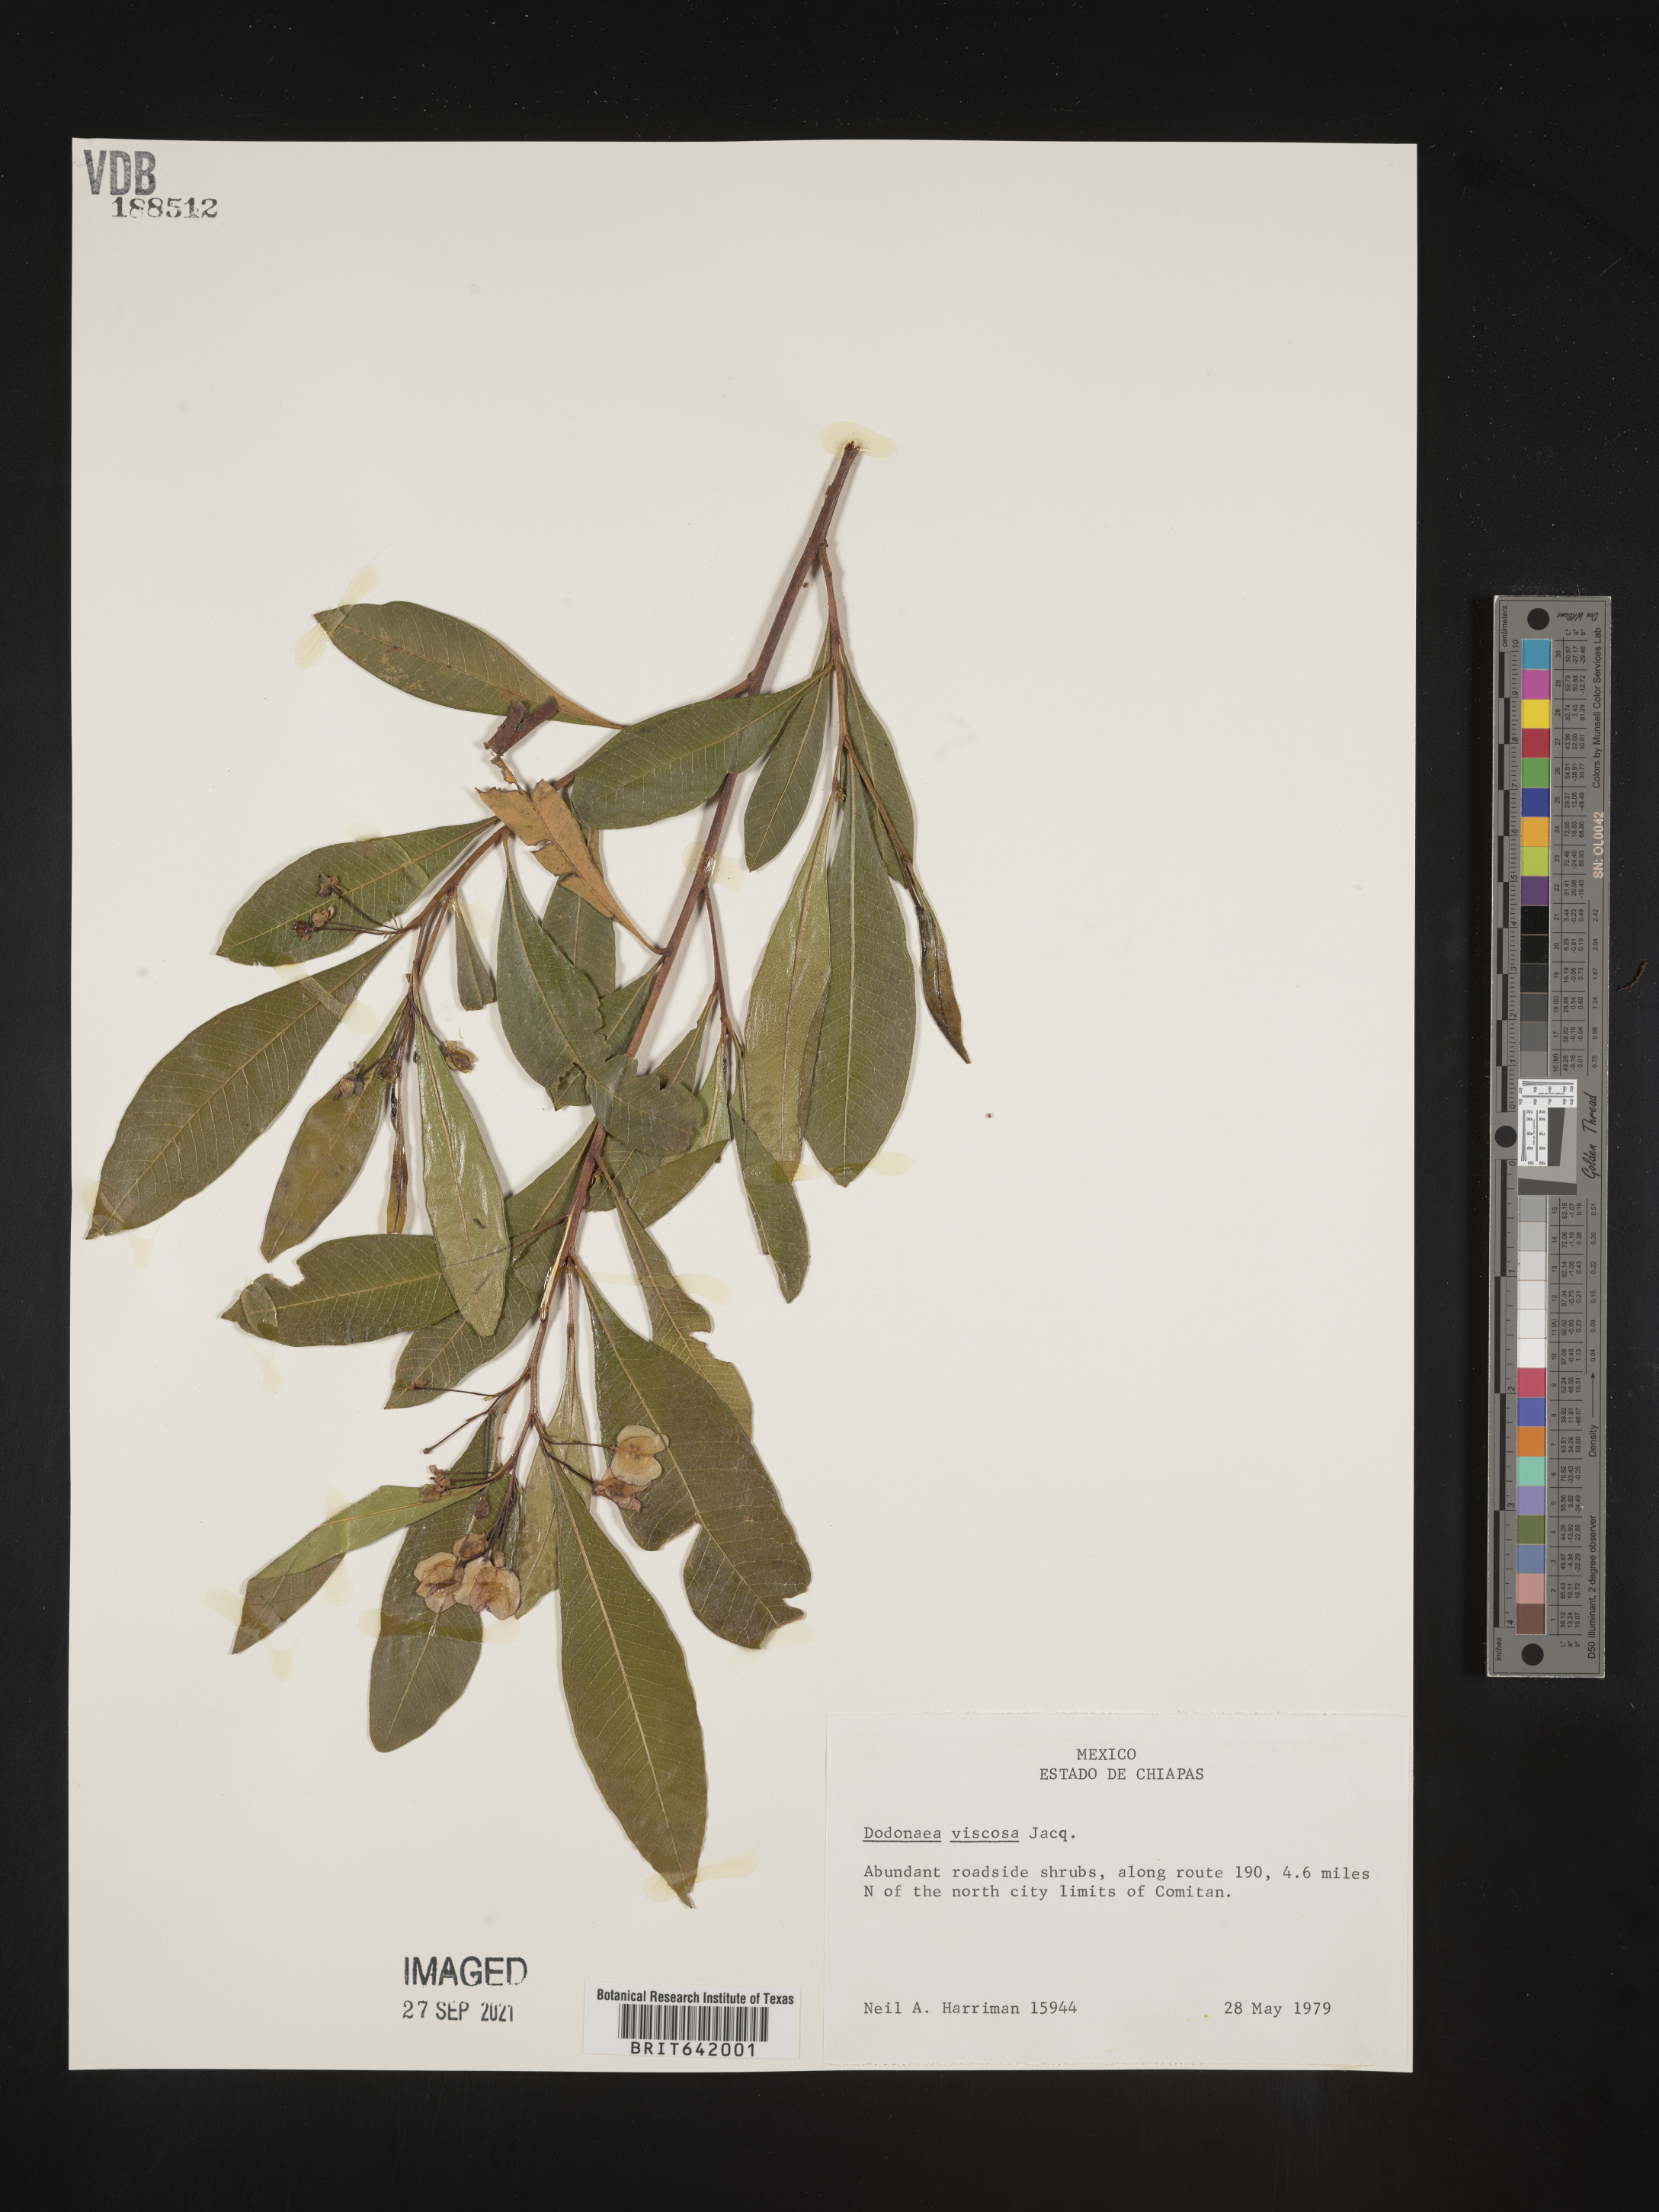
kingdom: Plantae
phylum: Tracheophyta
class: Magnoliopsida
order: Sapindales
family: Sapindaceae
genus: Dodonaea
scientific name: Dodonaea
